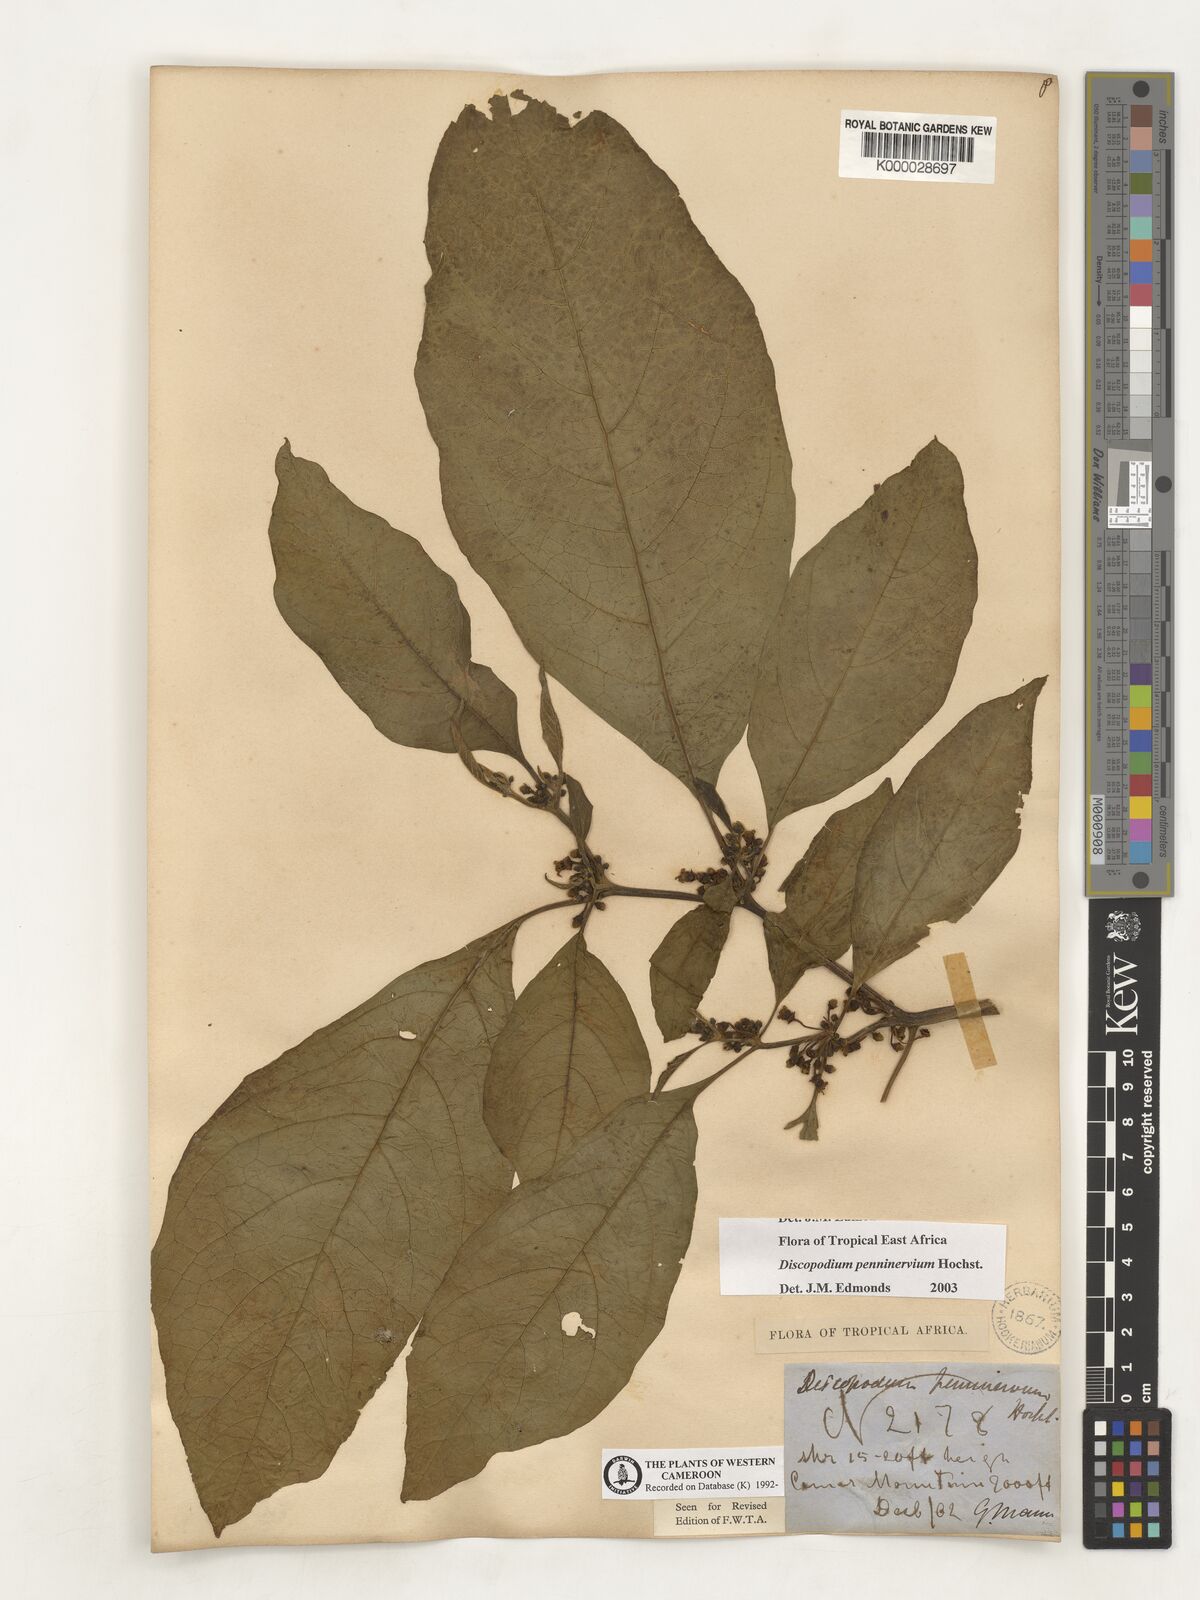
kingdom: Plantae
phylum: Tracheophyta
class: Magnoliopsida
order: Solanales
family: Solanaceae
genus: Discopodium
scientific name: Discopodium penninervium
